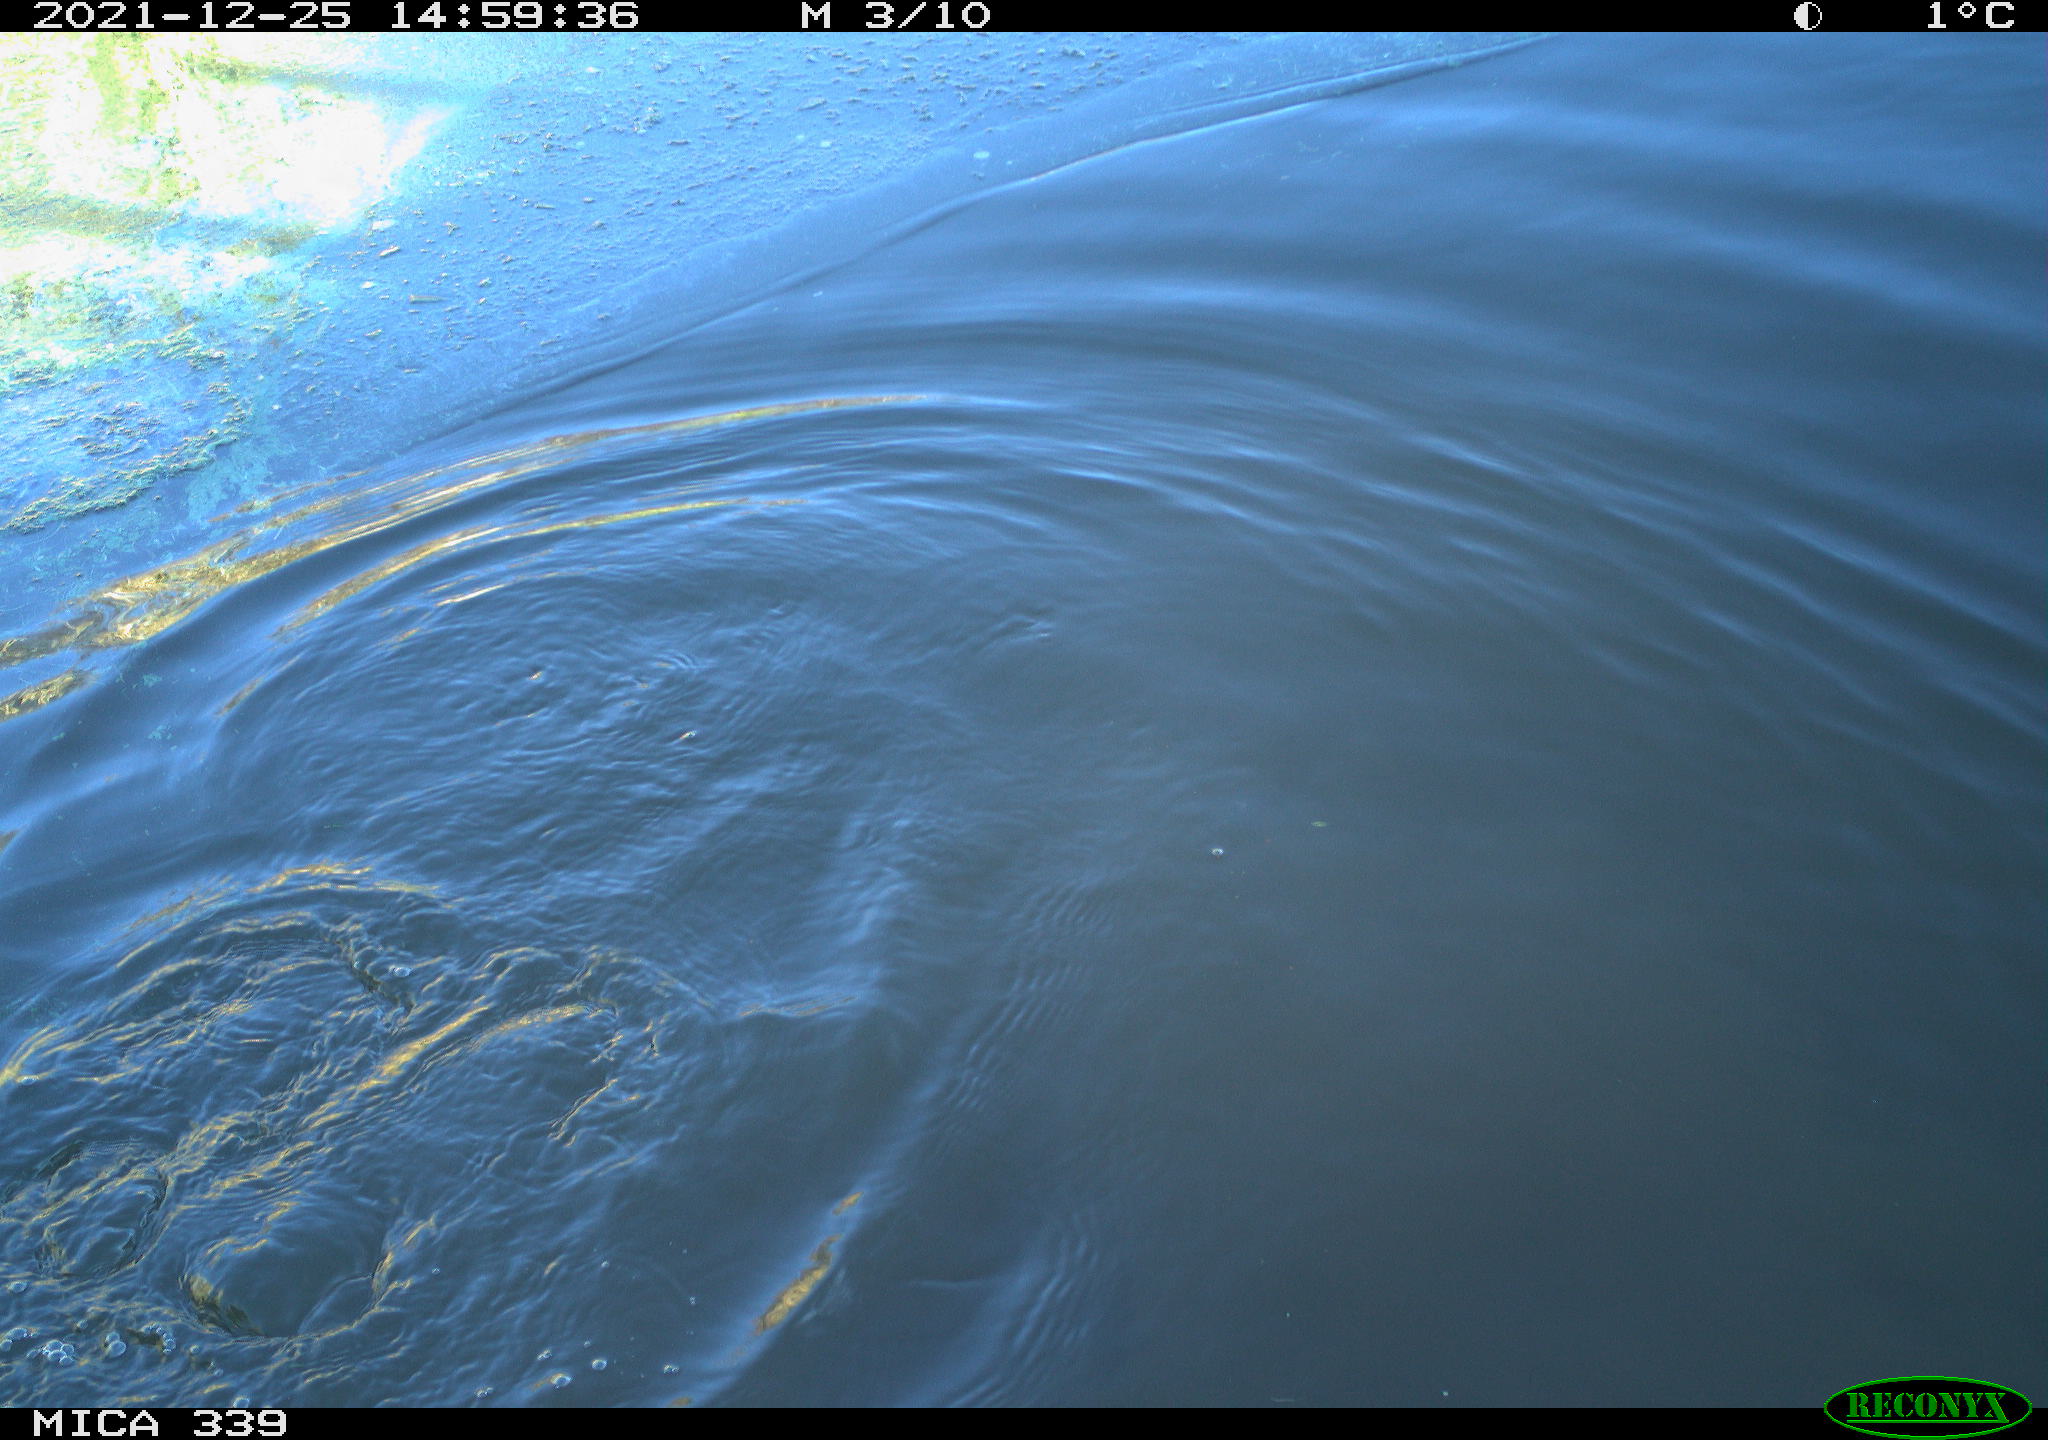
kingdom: Animalia
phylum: Chordata
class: Aves
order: Suliformes
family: Phalacrocoracidae
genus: Phalacrocorax
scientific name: Phalacrocorax carbo
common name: Great cormorant
